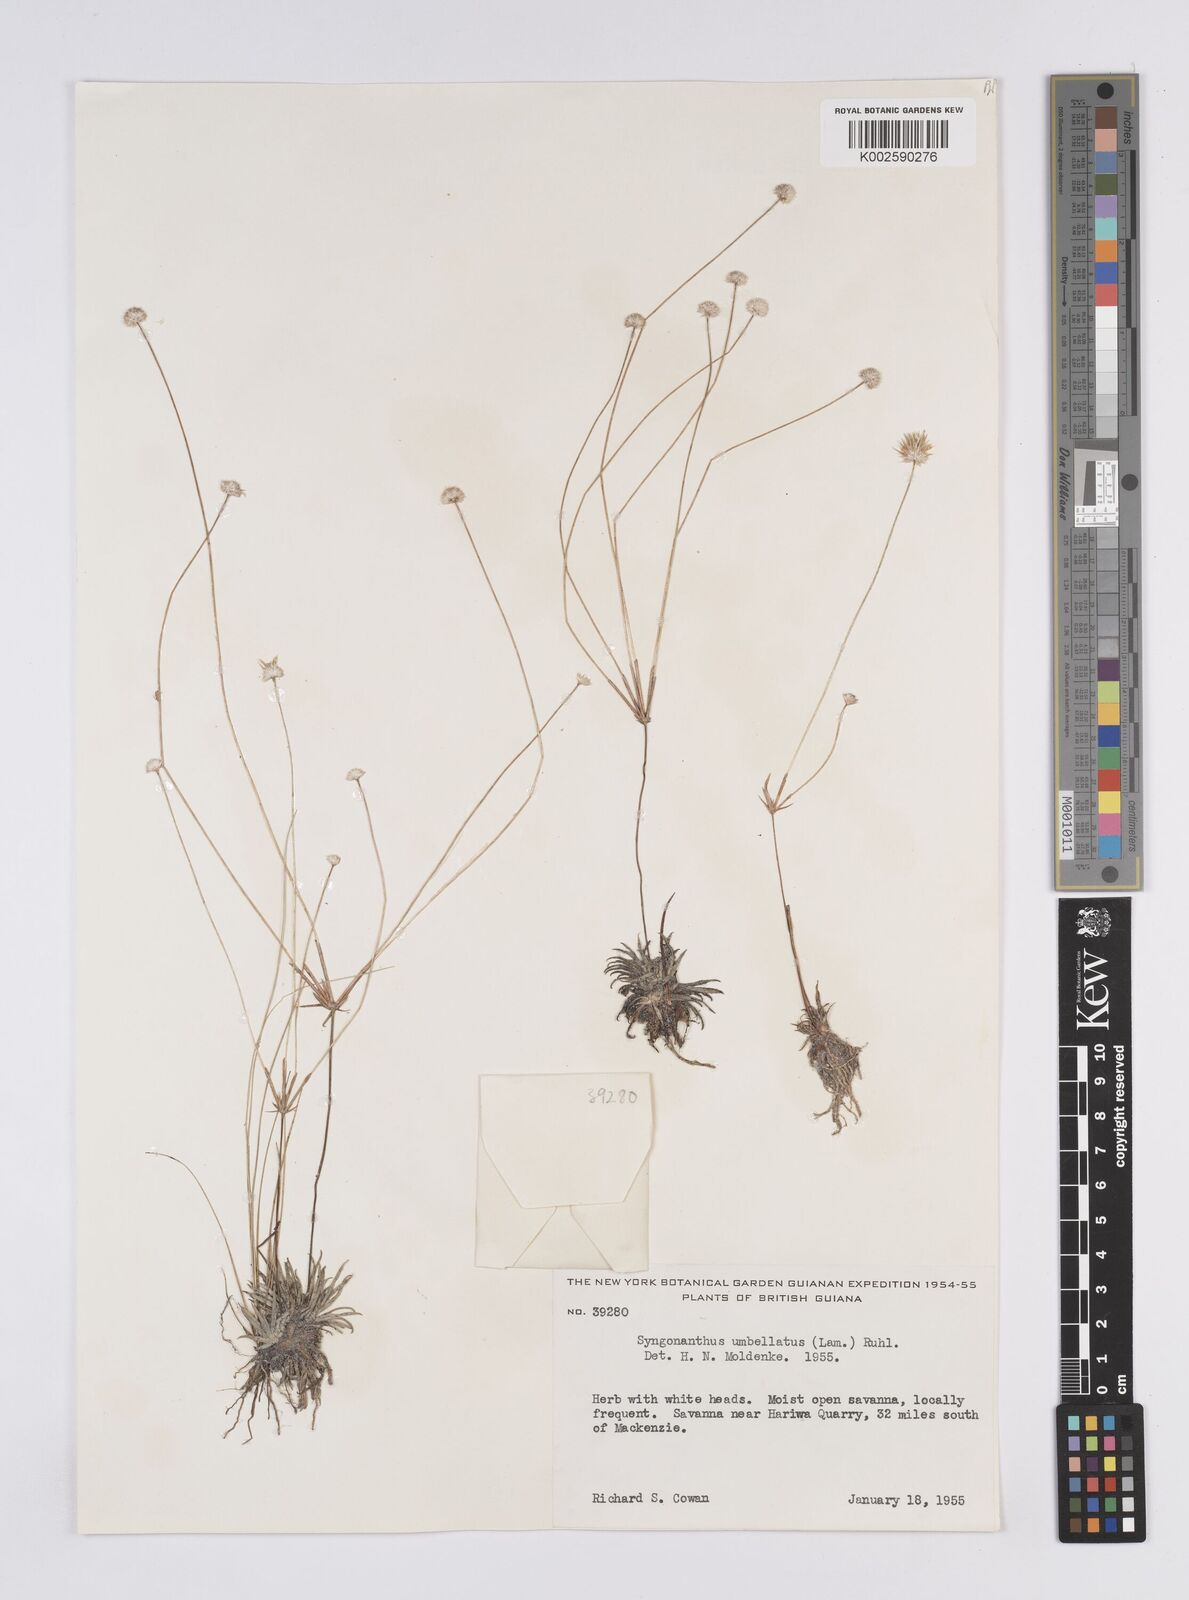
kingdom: Plantae
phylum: Tracheophyta
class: Liliopsida
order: Poales
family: Eriocaulaceae
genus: Syngonanthus
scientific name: Syngonanthus umbellatus
